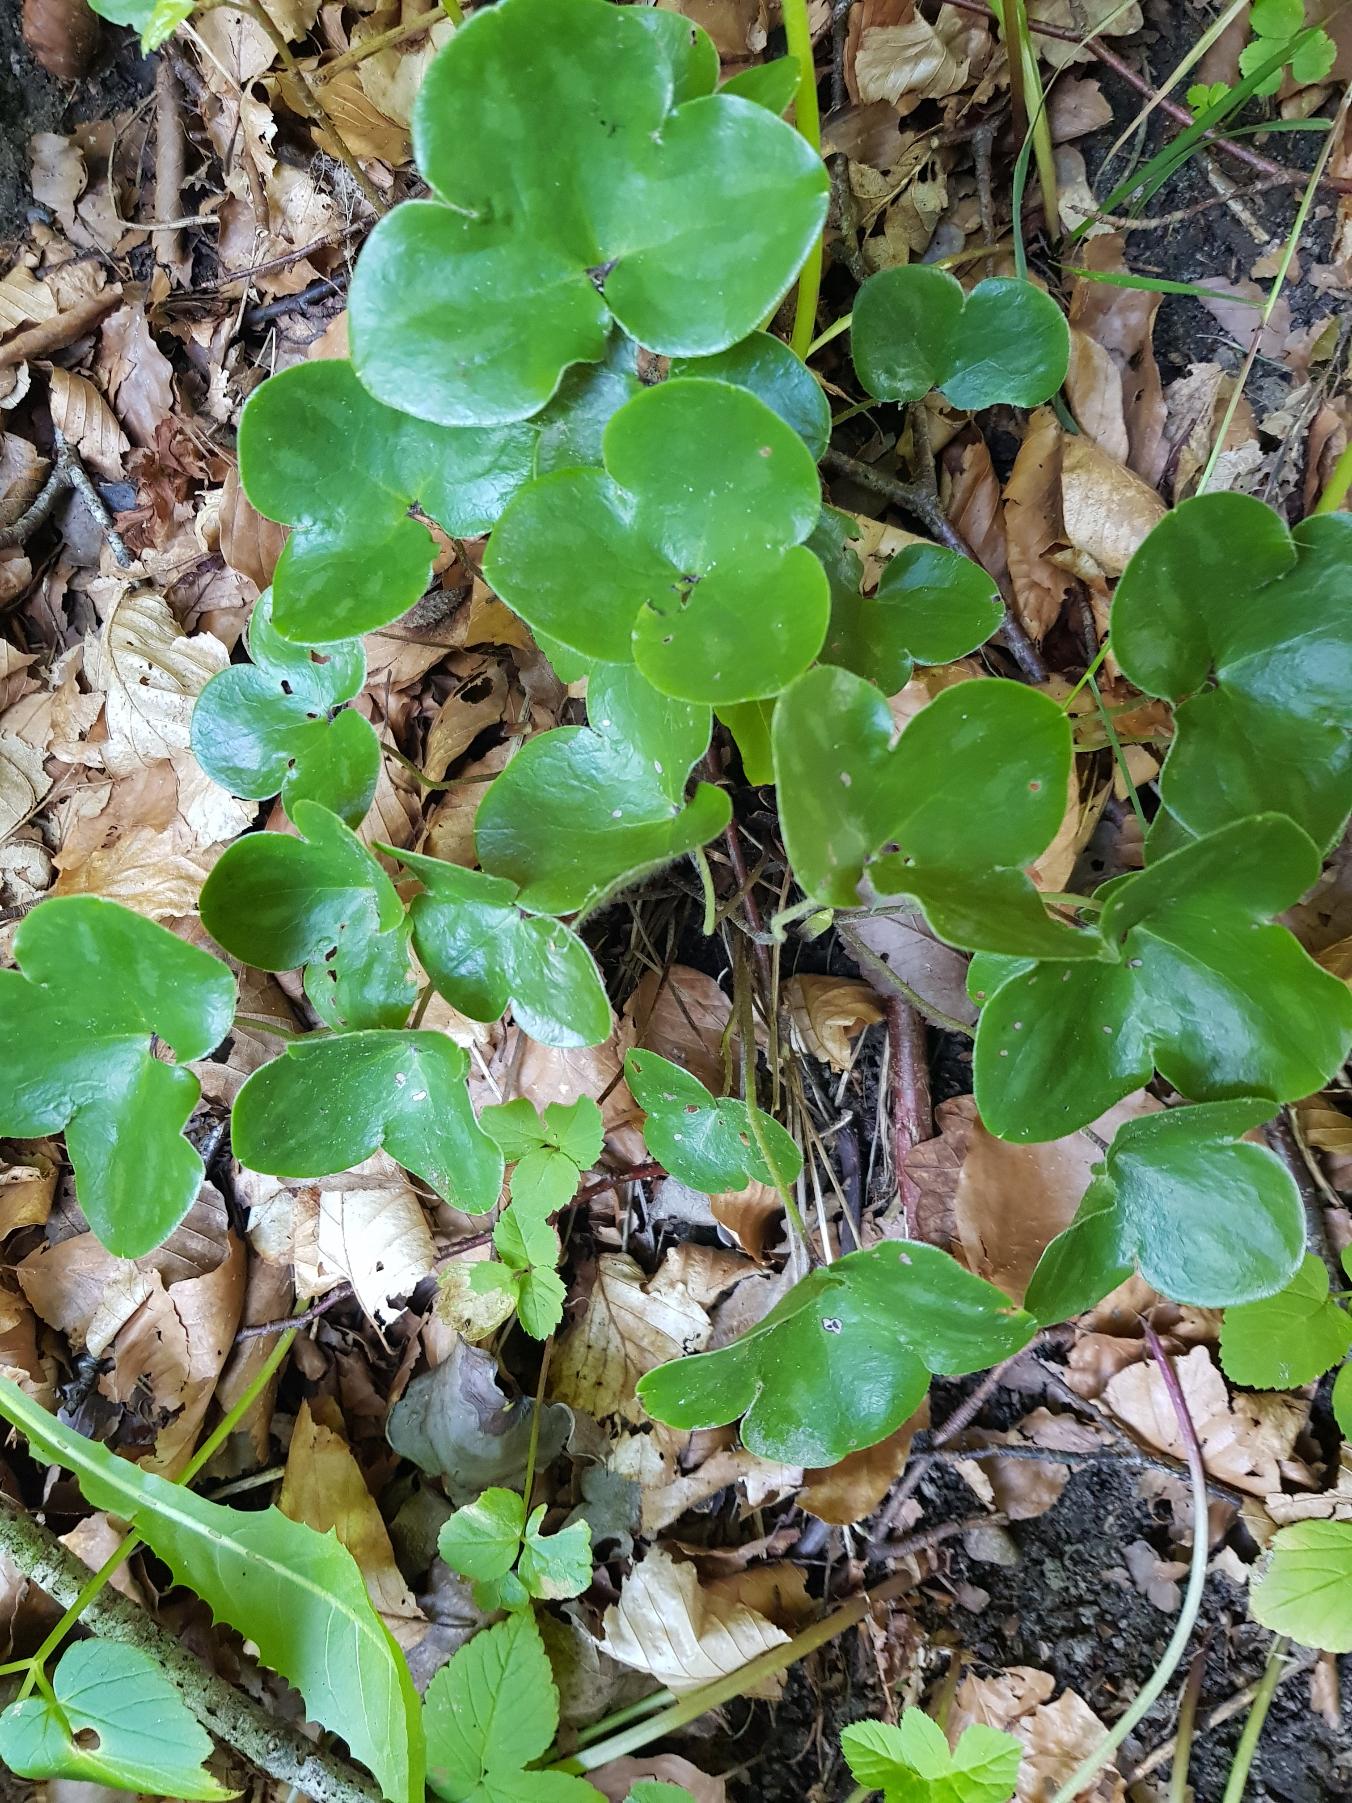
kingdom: Plantae
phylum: Tracheophyta
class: Magnoliopsida
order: Ranunculales
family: Ranunculaceae
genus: Hepatica
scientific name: Hepatica nobilis
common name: Blå anemone
